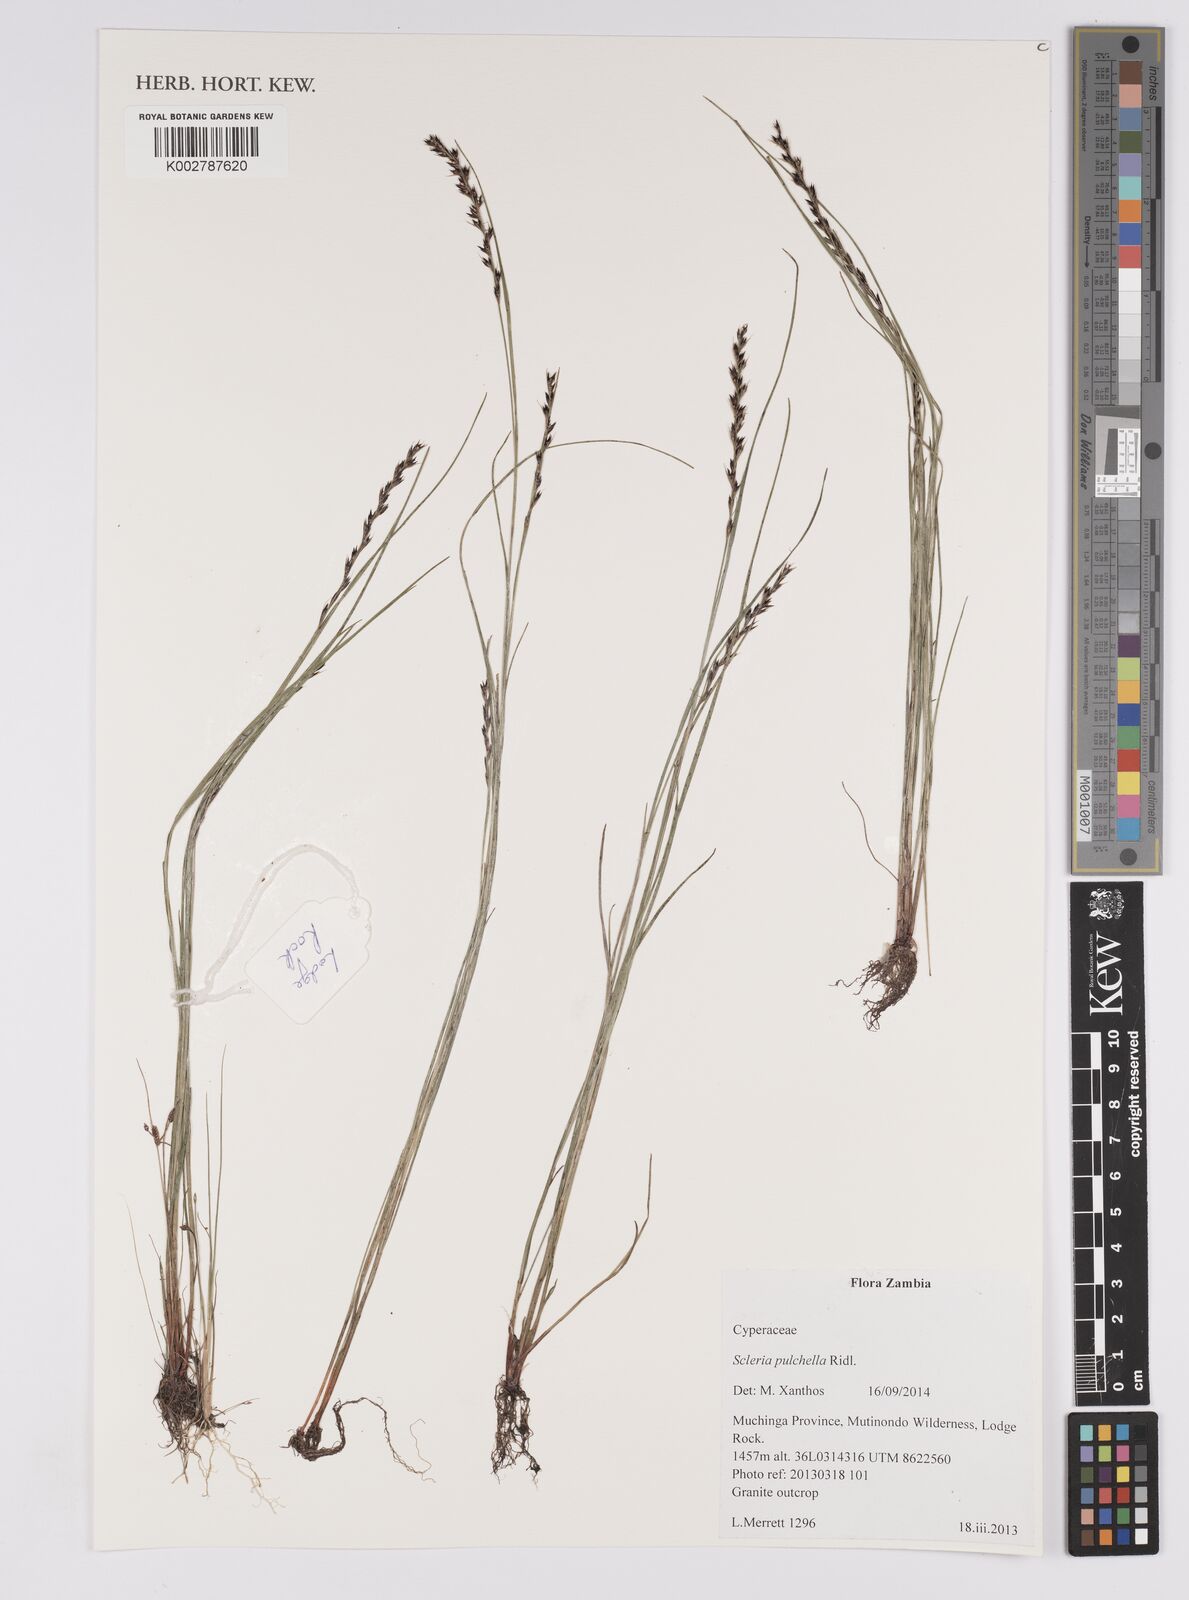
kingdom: Plantae
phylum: Tracheophyta
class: Liliopsida
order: Poales
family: Cyperaceae
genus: Scleria
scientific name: Scleria pulchella
